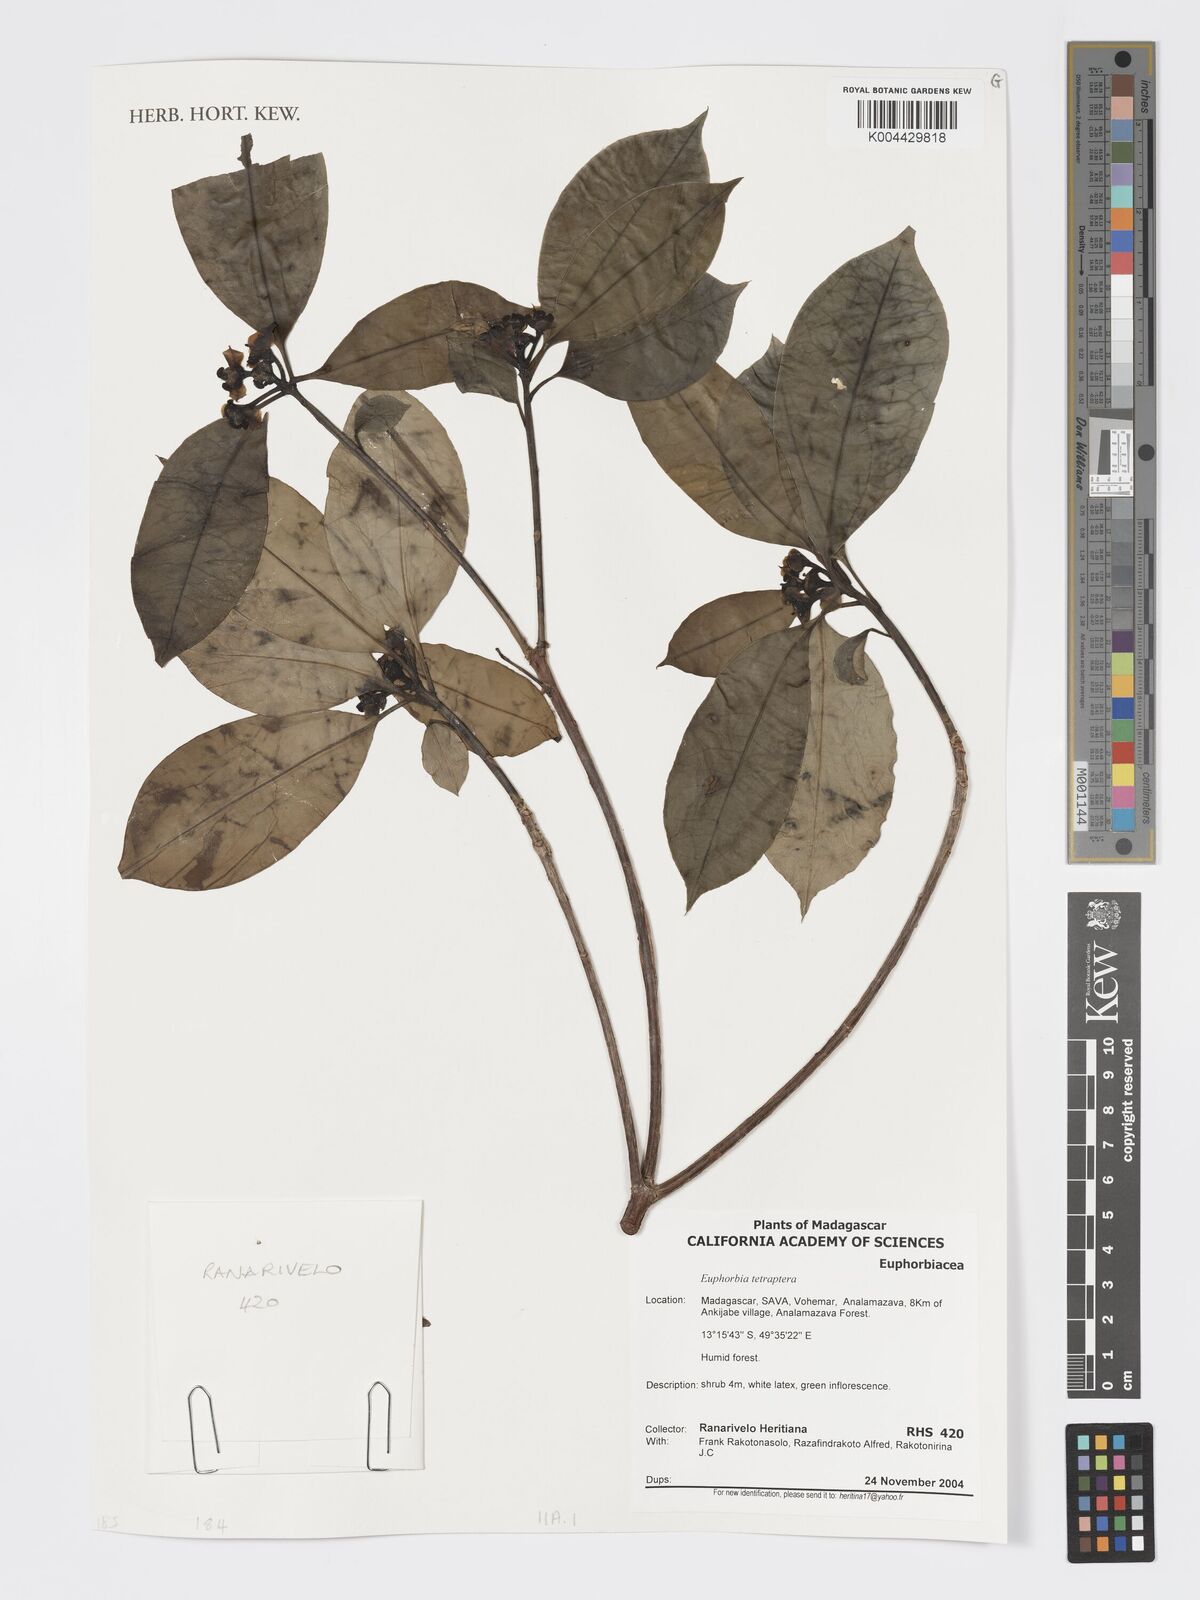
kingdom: Plantae
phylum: Tracheophyta
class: Magnoliopsida
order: Malpighiales
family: Euphorbiaceae
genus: Euphorbia
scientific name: Euphorbia tetraptera
